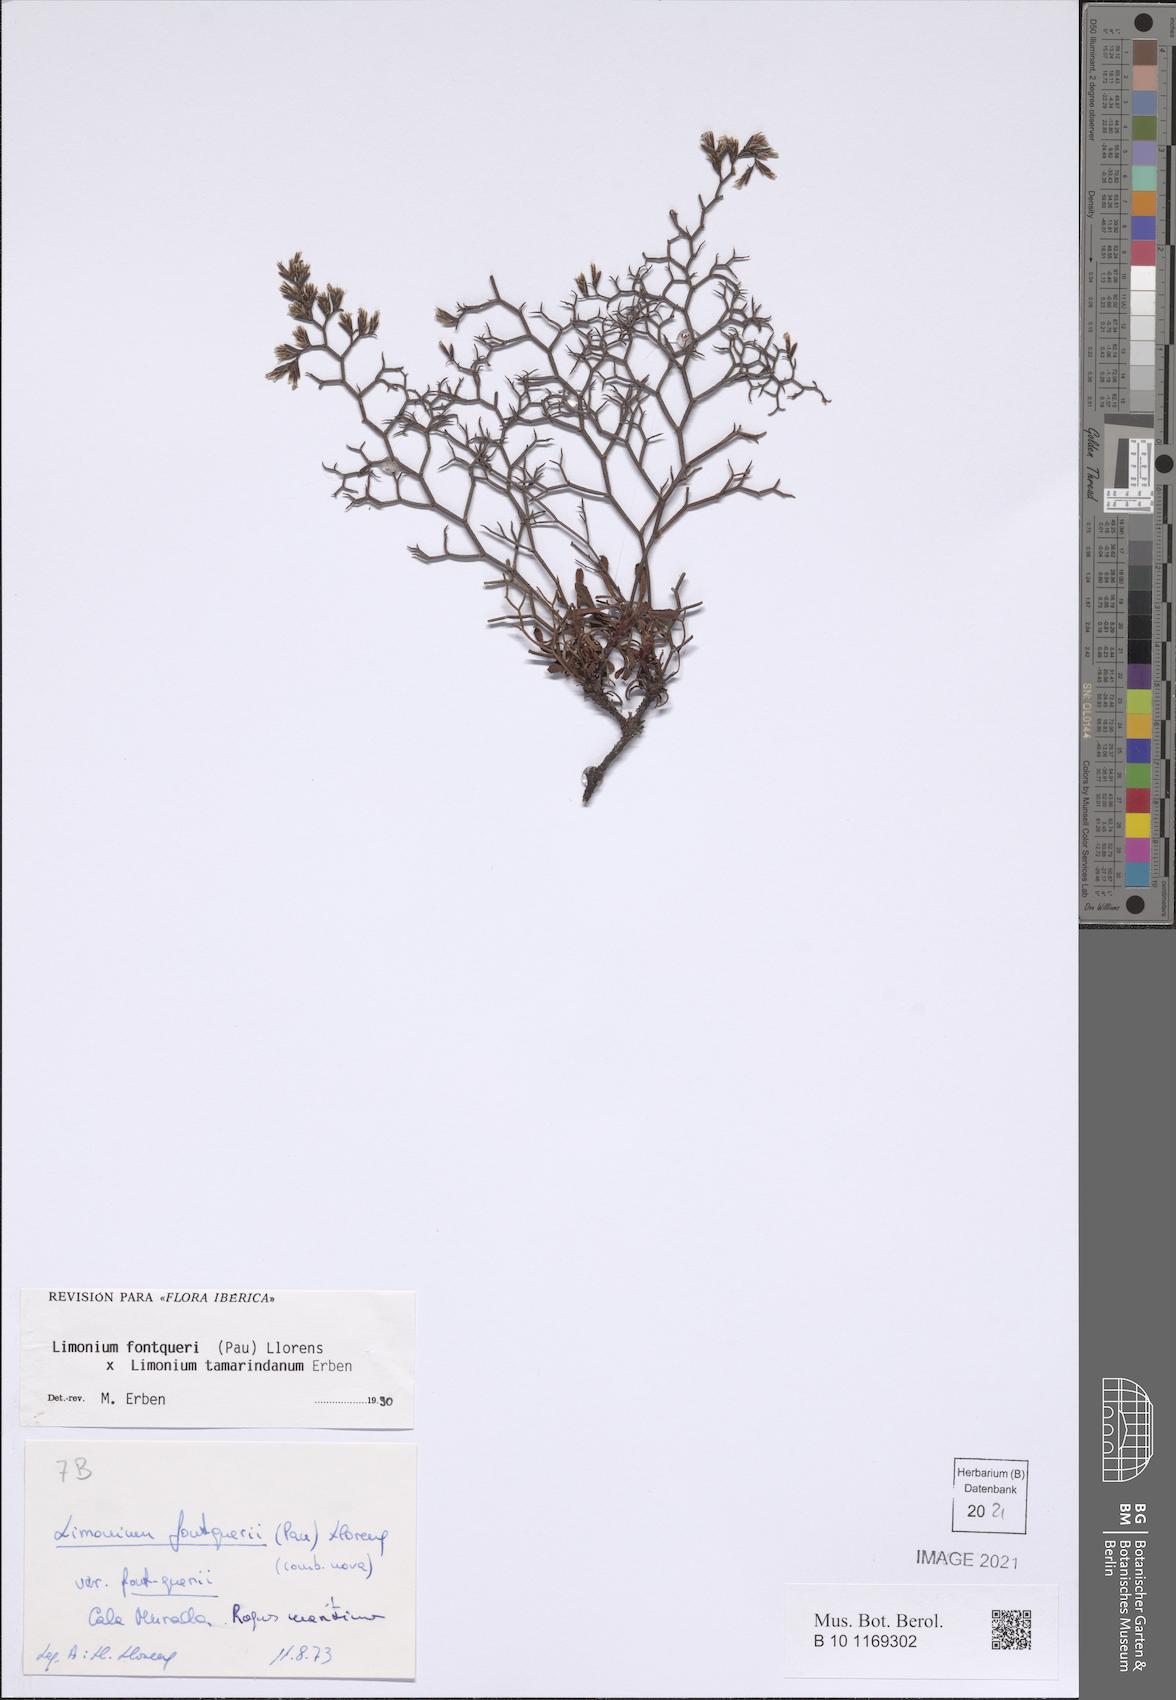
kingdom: Plantae
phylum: Tracheophyta
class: Magnoliopsida
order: Caryophyllales
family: Plumbaginaceae
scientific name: Plumbaginaceae
